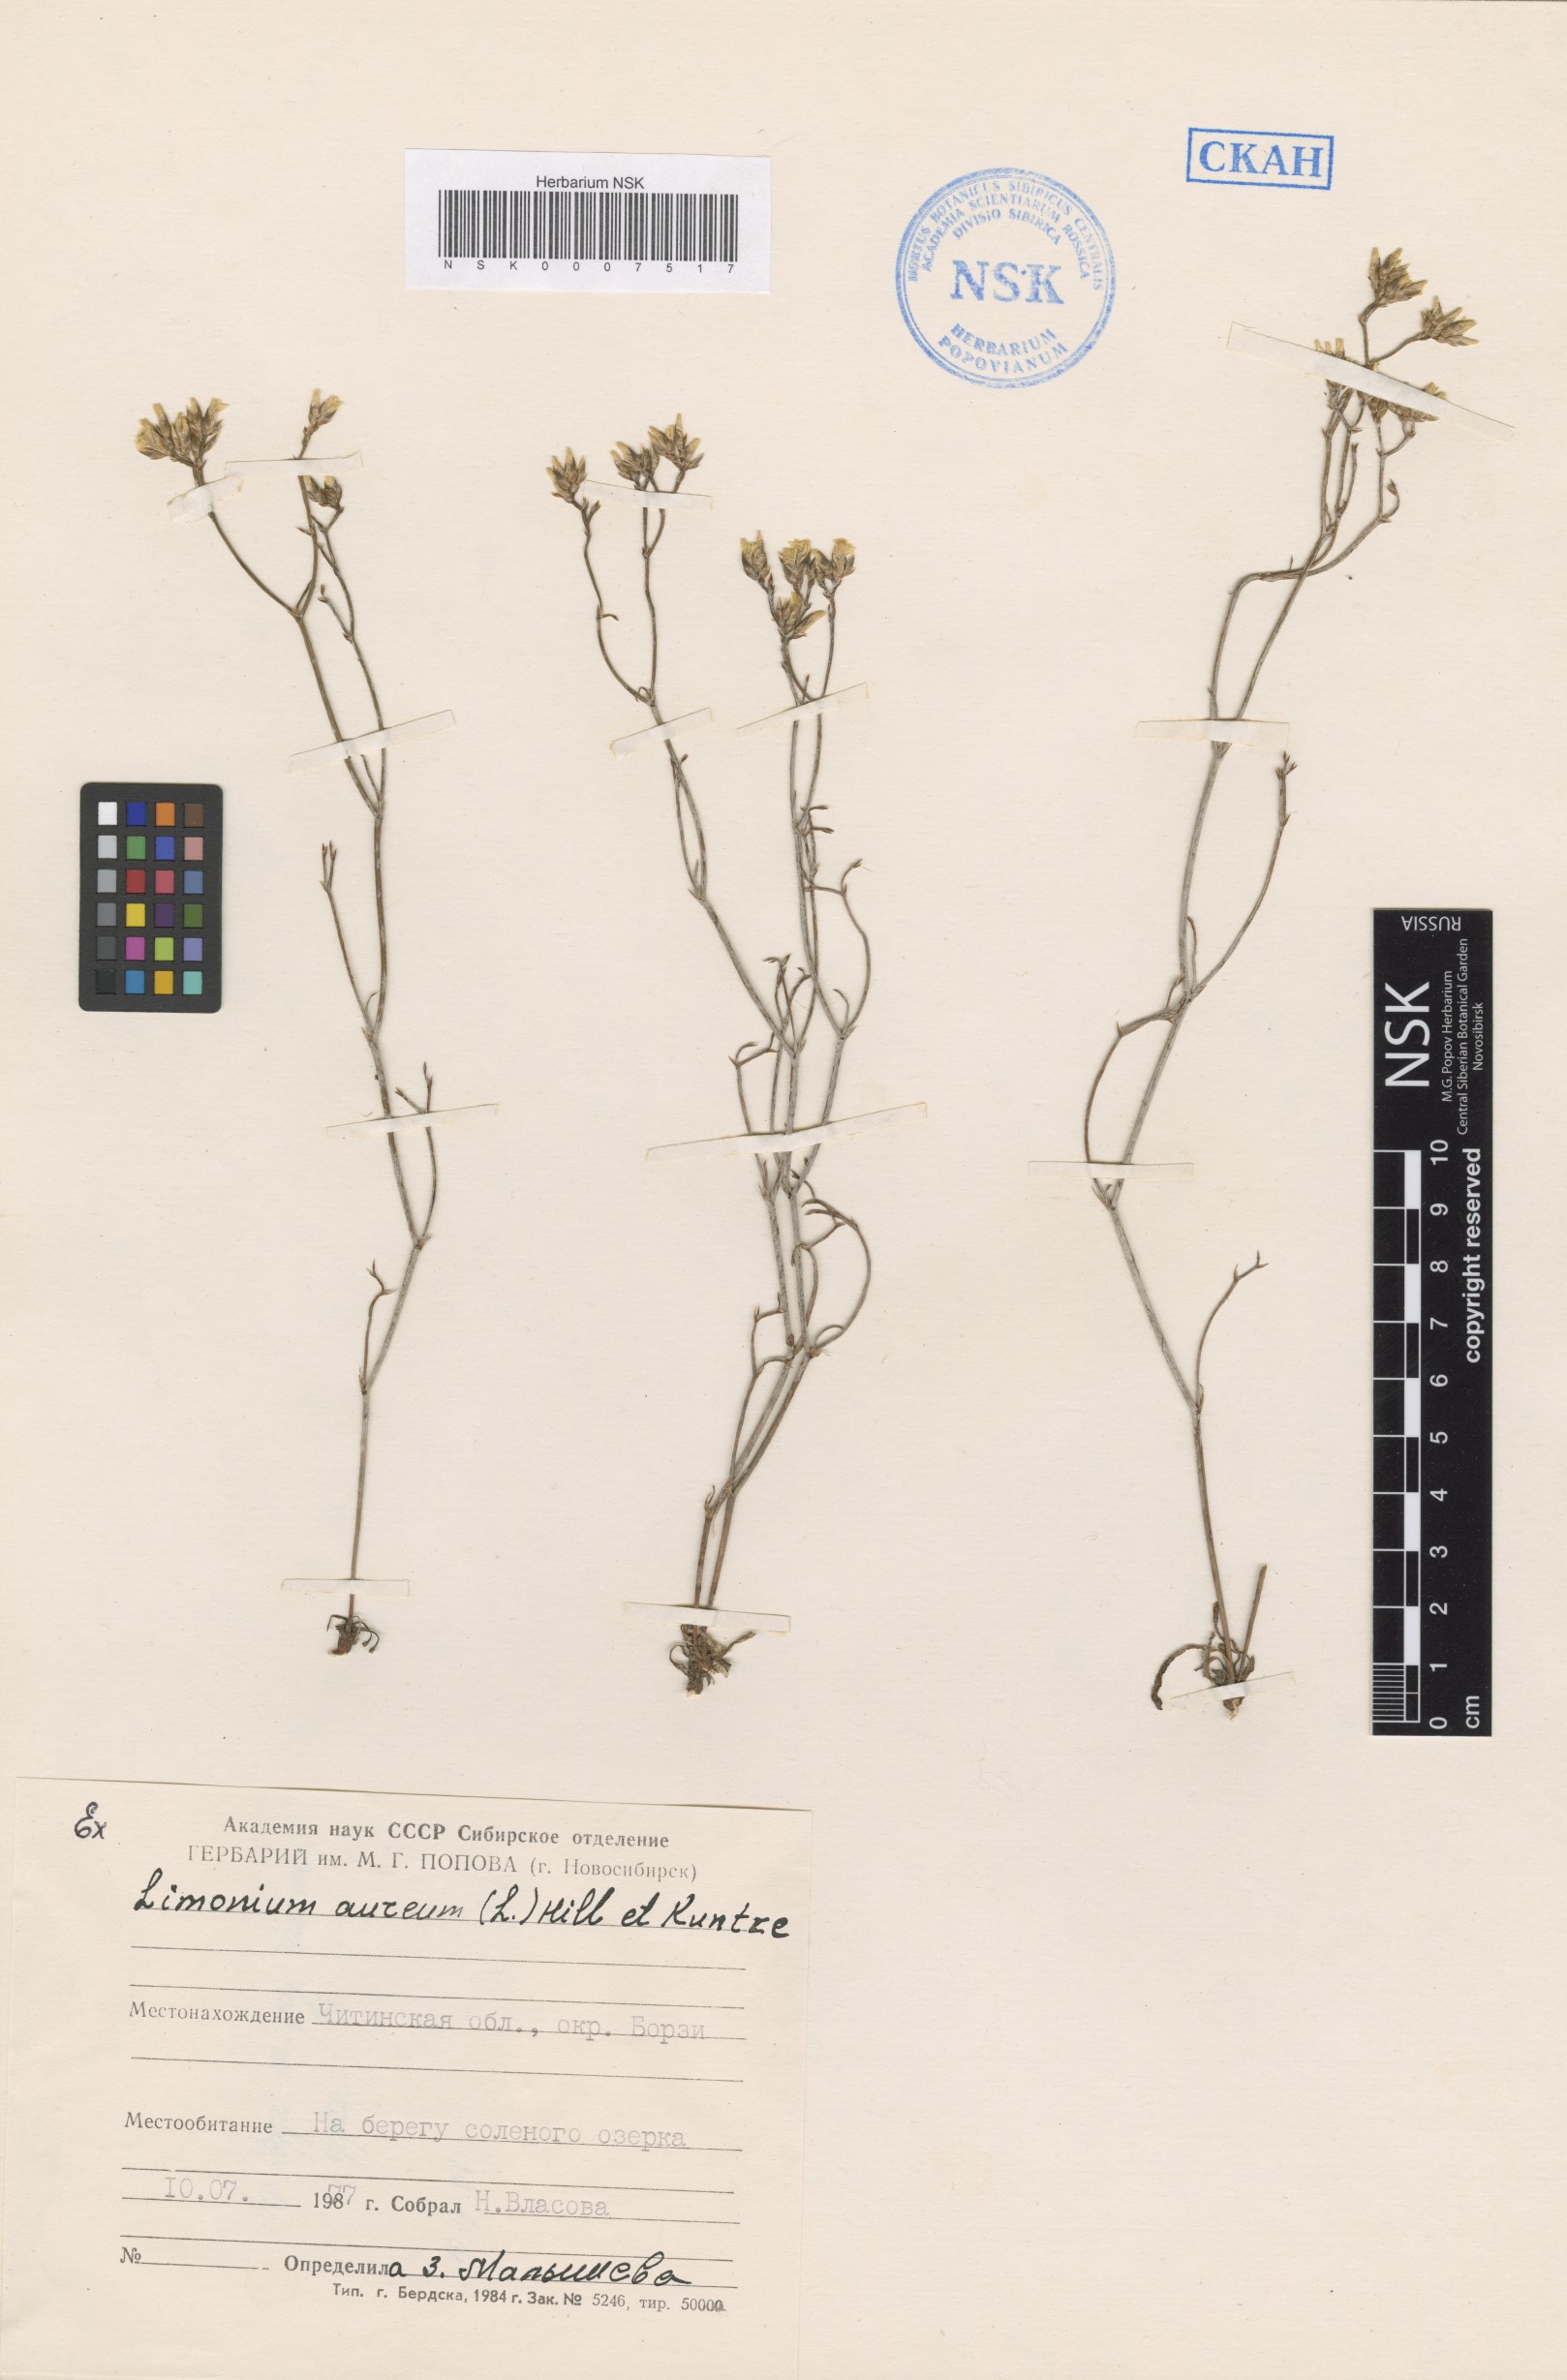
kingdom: Plantae
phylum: Tracheophyta
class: Magnoliopsida
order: Caryophyllales
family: Plumbaginaceae
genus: Limonium
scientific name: Limonium aureum
